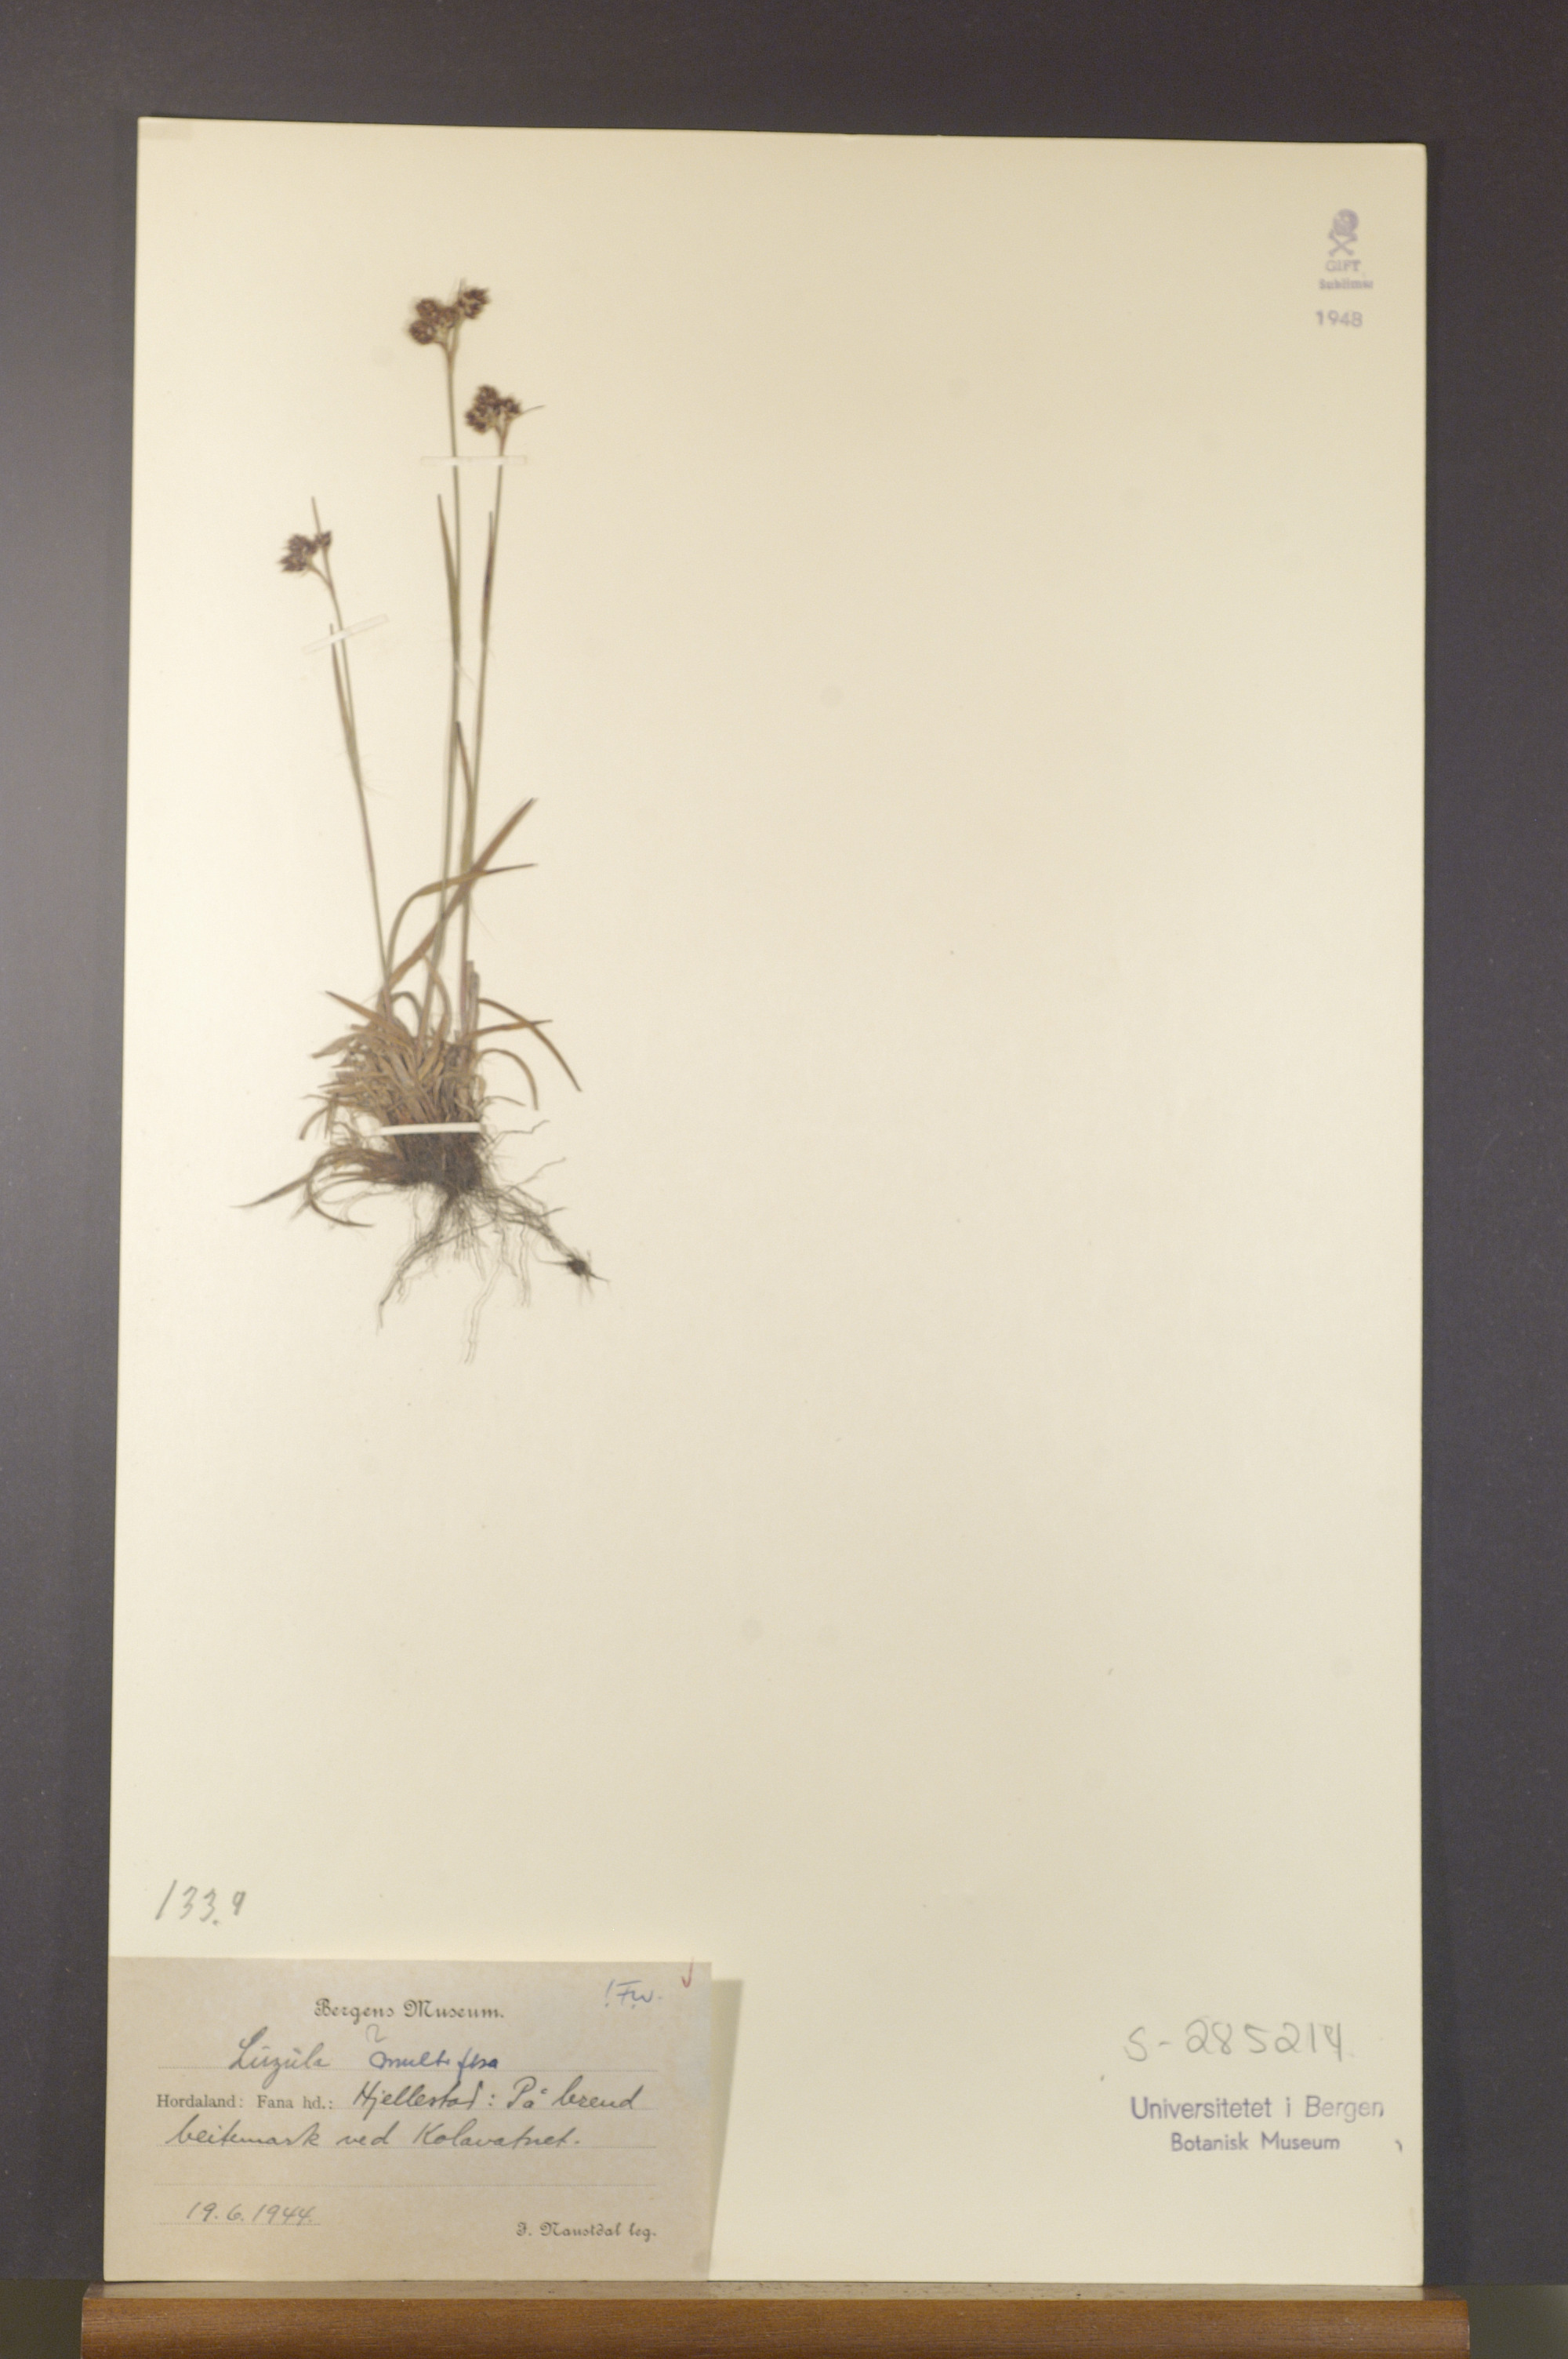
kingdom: Plantae
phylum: Tracheophyta
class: Liliopsida
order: Poales
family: Juncaceae
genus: Luzula
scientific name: Luzula multiflora
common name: Heath wood-rush
